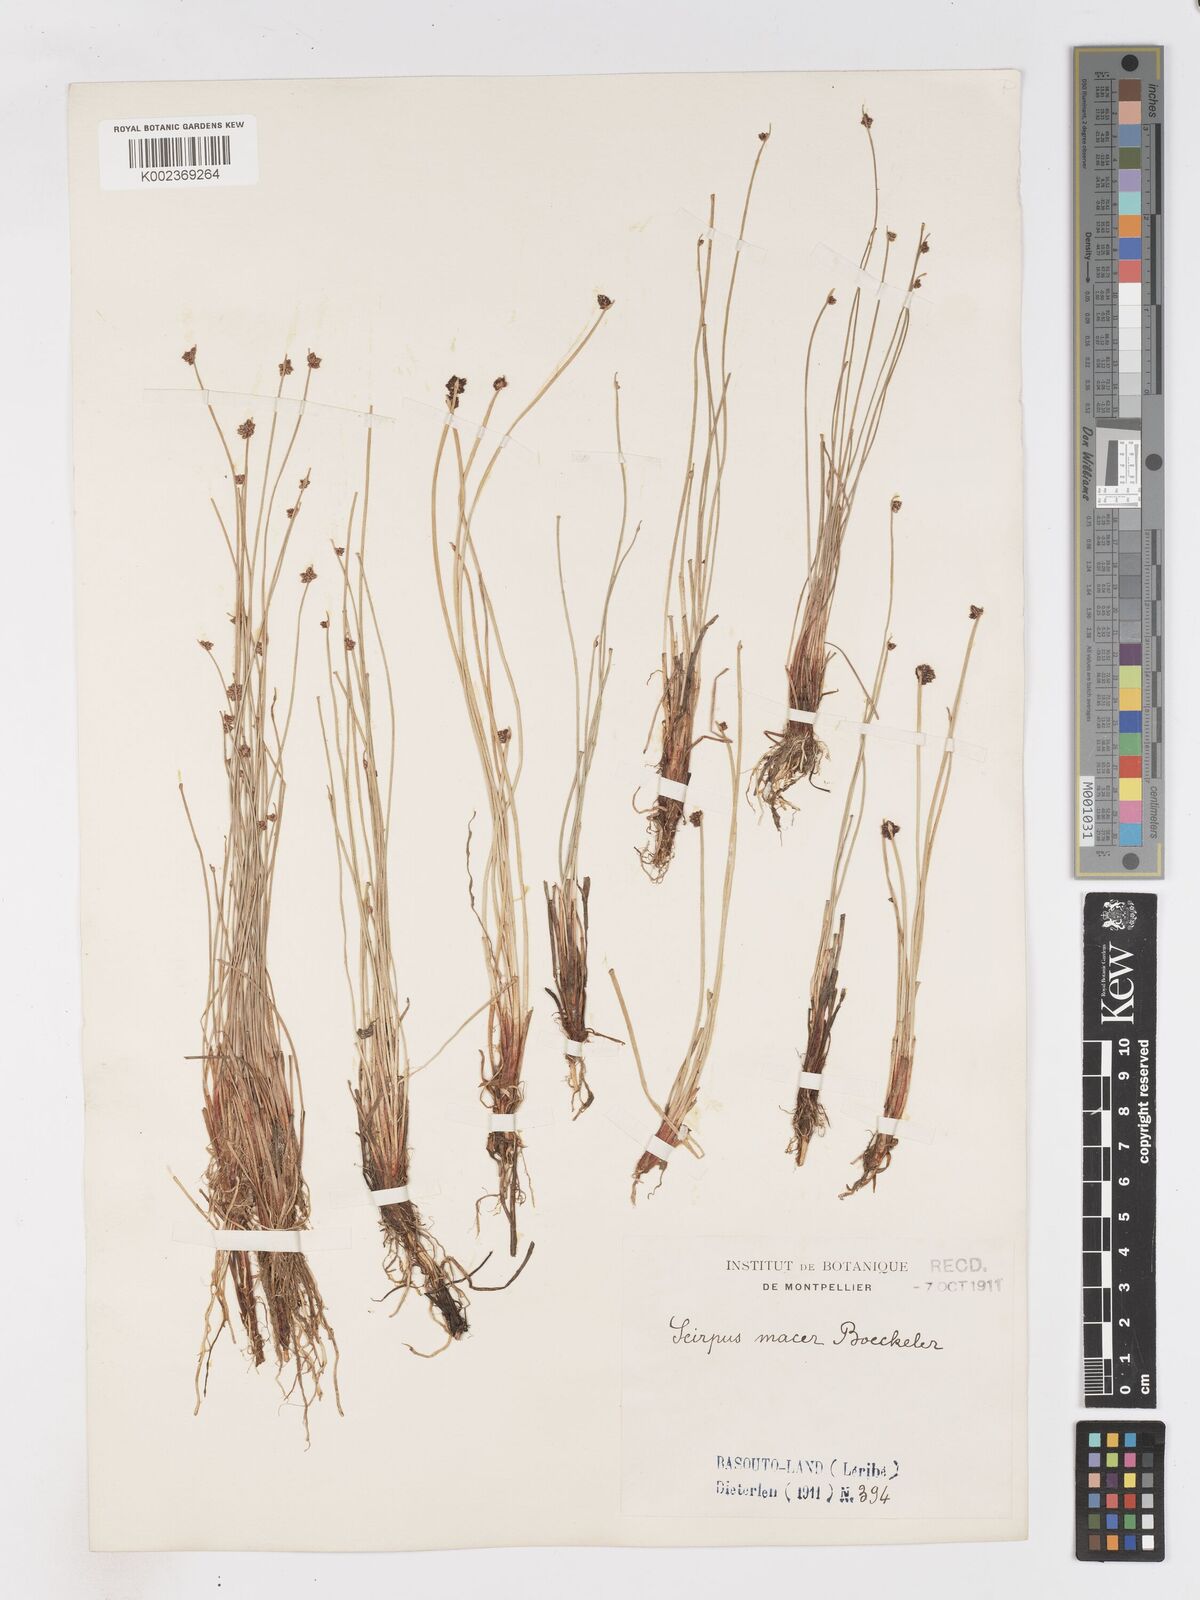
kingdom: Plantae
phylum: Tracheophyta
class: Liliopsida
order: Poales
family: Cyperaceae
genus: Isolepis
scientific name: Isolepis costata
